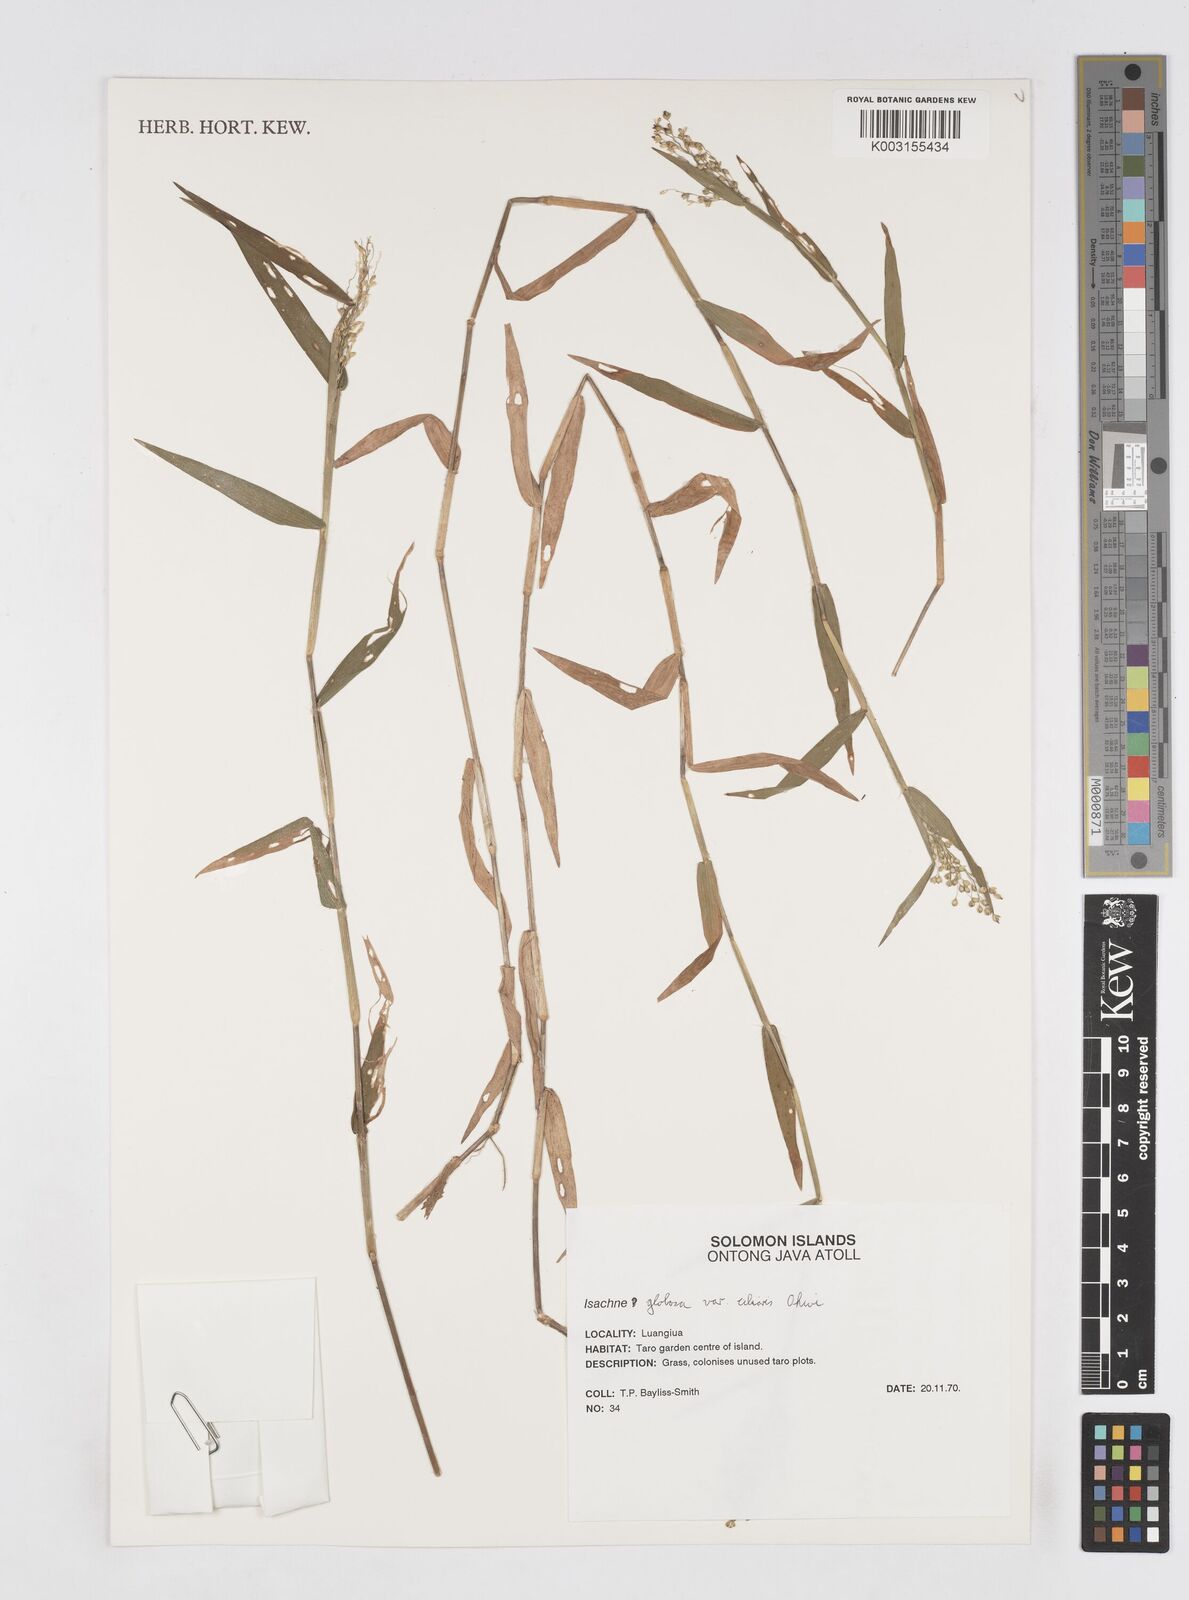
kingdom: Plantae
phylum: Tracheophyta
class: Liliopsida
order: Poales
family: Poaceae
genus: Isachne
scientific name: Isachne globosa
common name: Swamp millet
